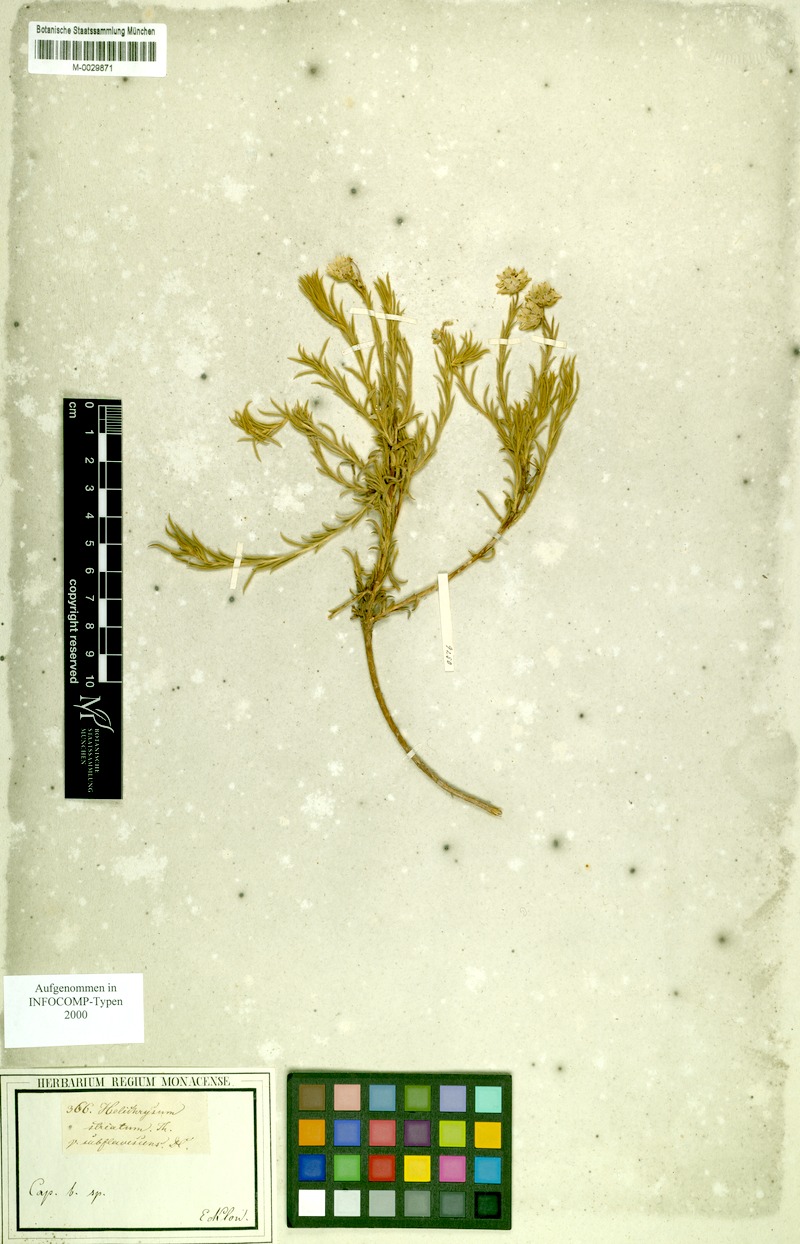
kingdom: Plantae
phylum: Tracheophyta
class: Magnoliopsida
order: Asterales
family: Asteraceae
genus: Achyranthemum
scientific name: Achyranthemum striatum
